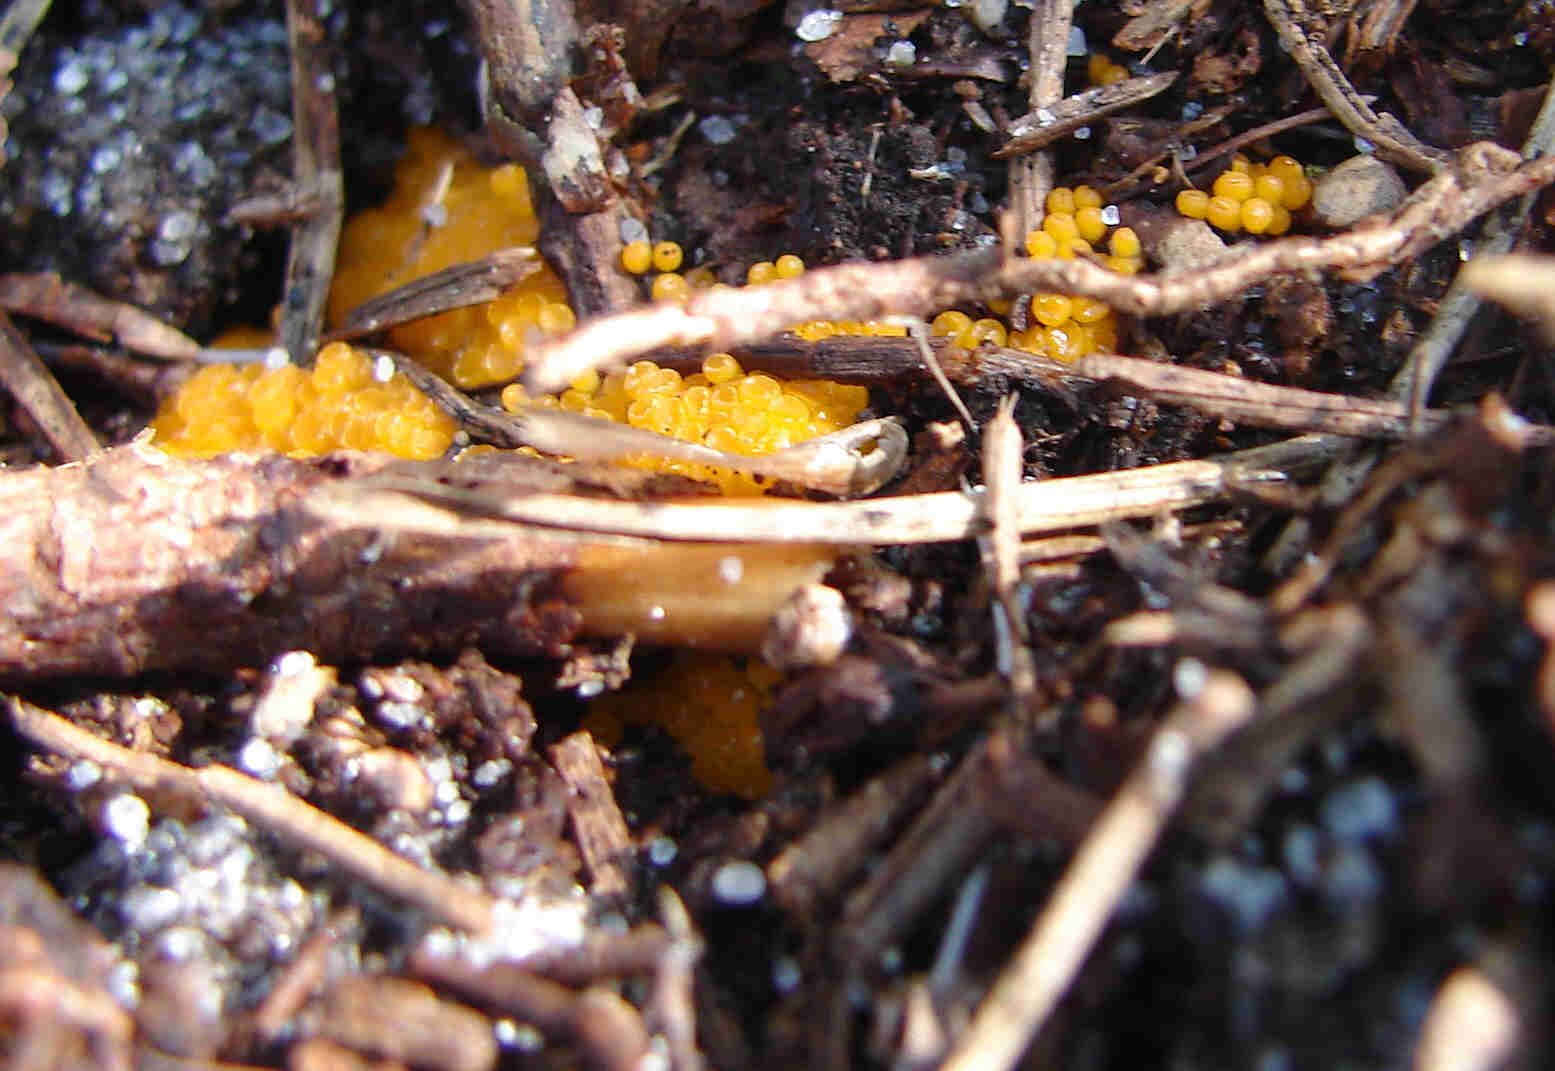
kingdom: Fungi
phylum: Ascomycota
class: Pezizomycetes
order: Pezizales
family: Pyronemataceae
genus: Byssonectria
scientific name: Byssonectria terrestris
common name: hjortebæger
